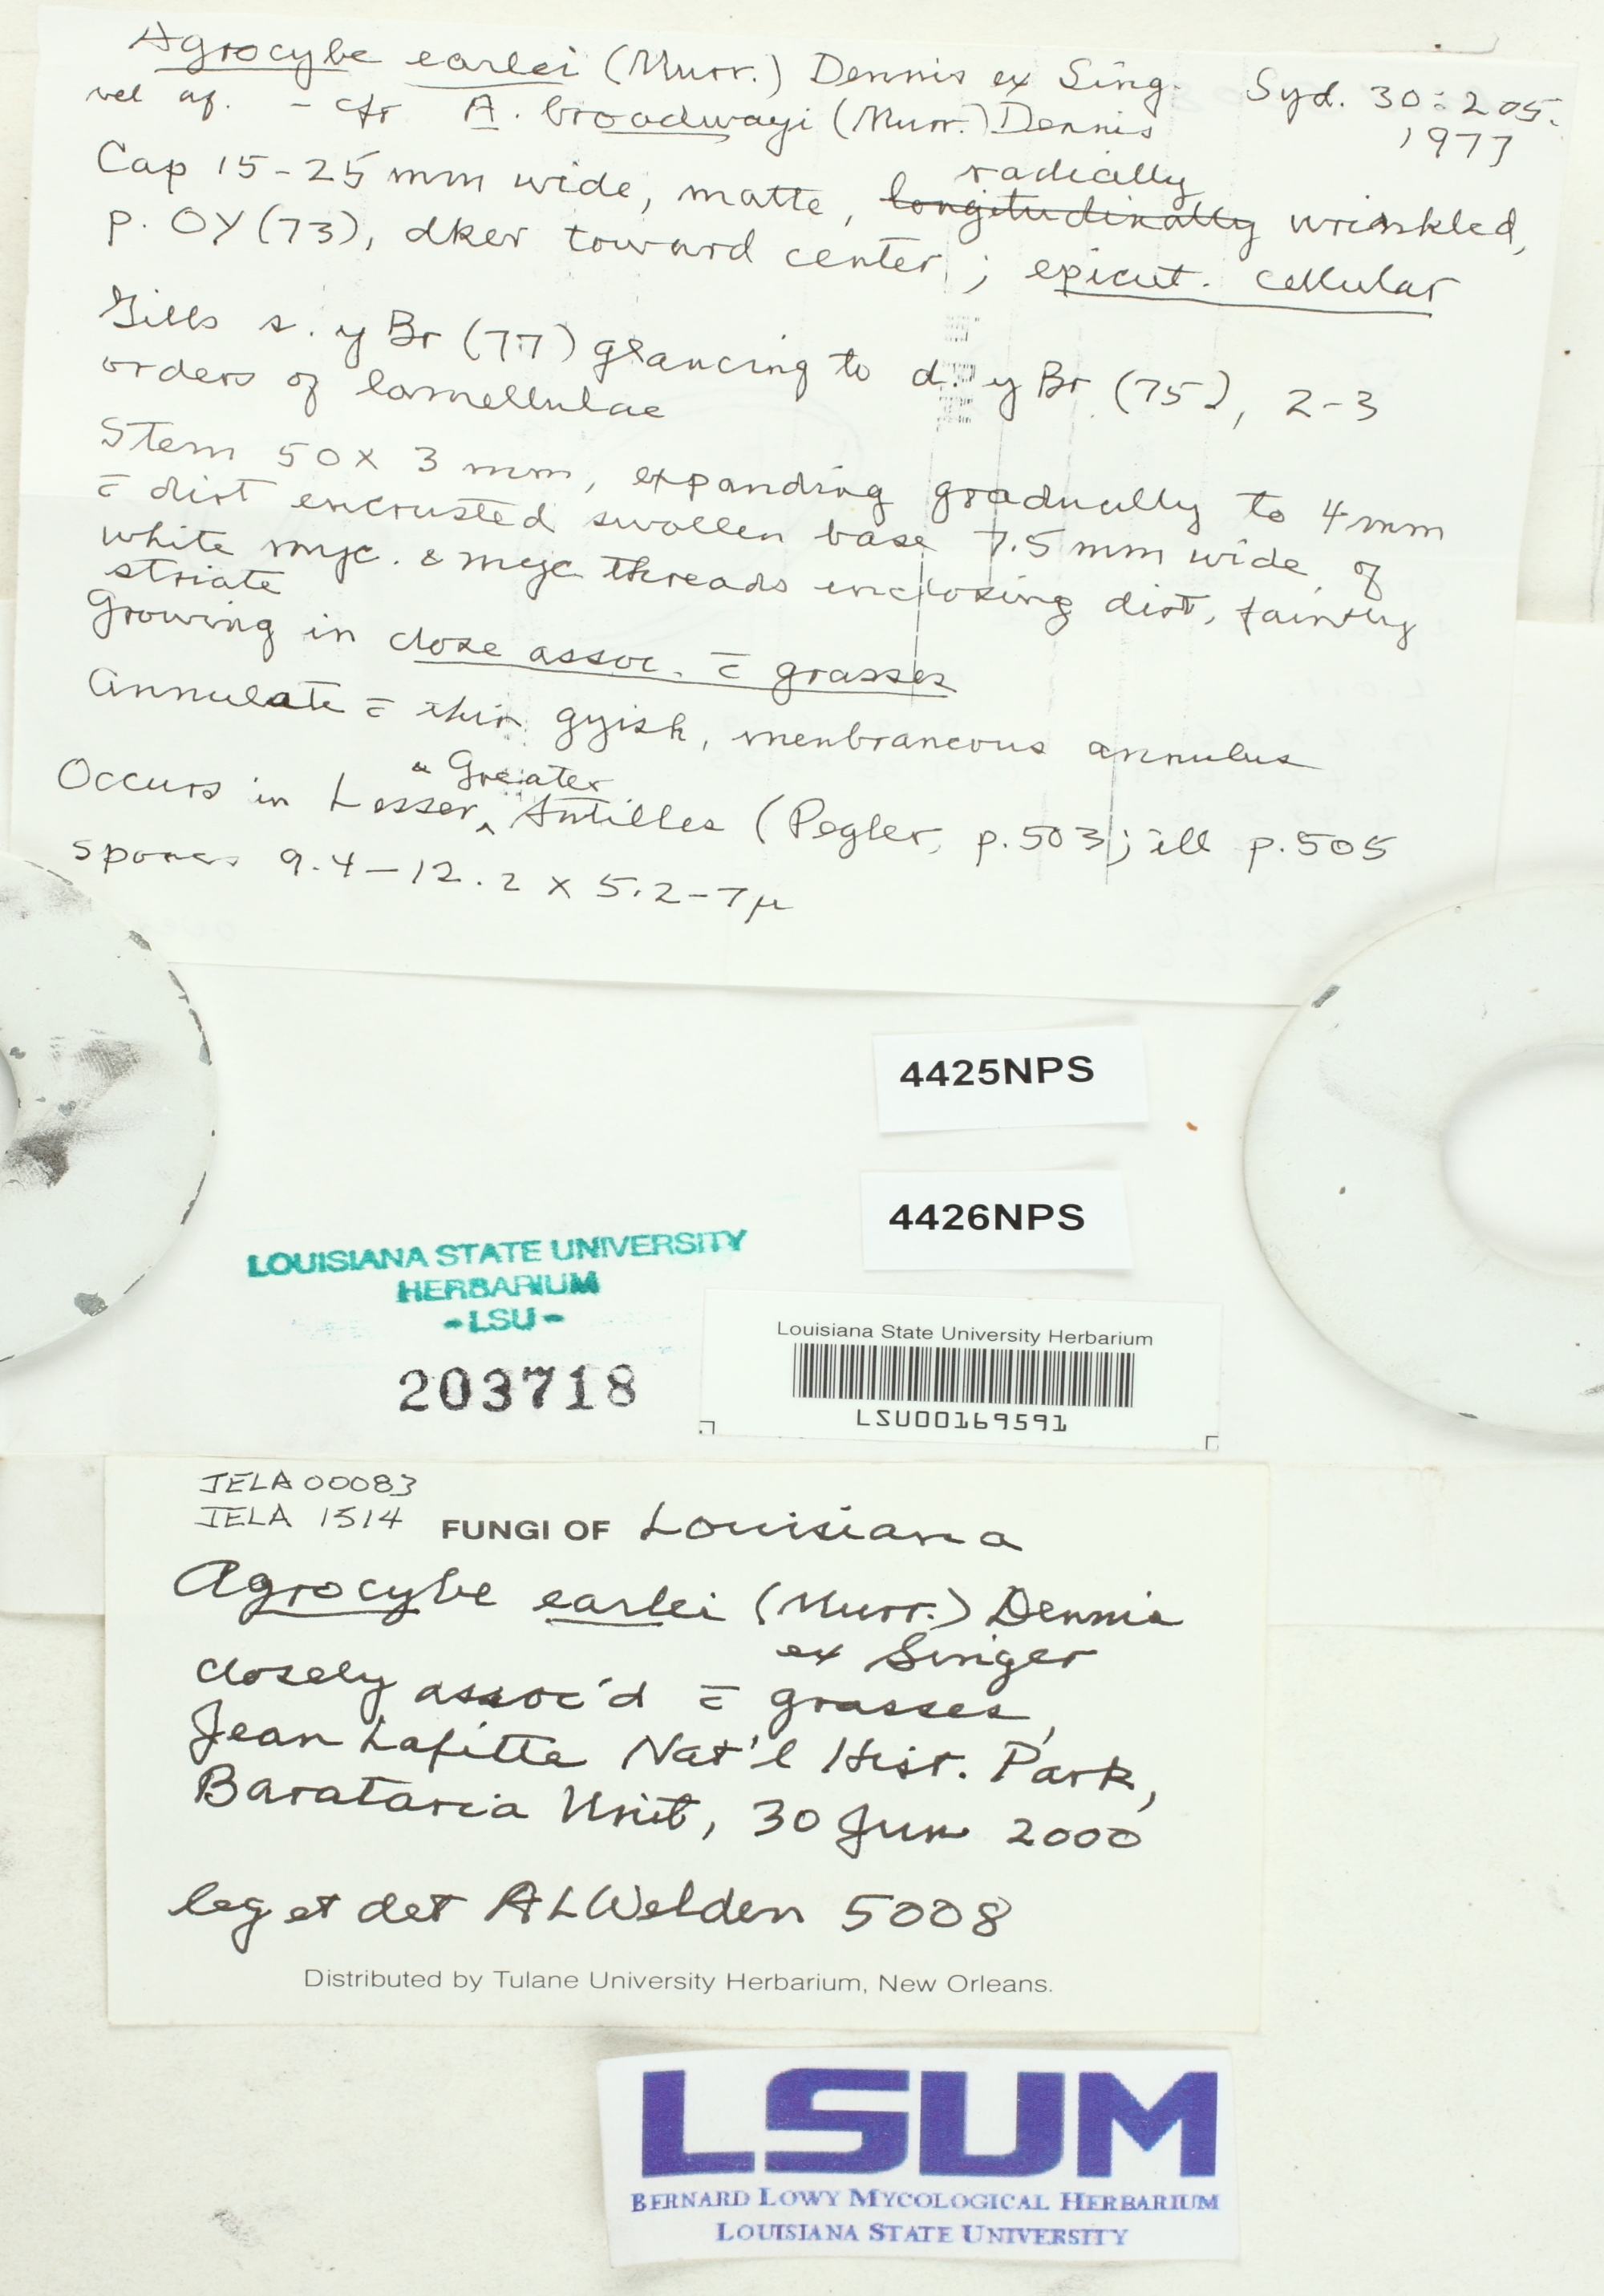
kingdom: Fungi
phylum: Basidiomycota
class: Agaricomycetes
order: Agaricales
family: Strophariaceae
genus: Agrocybe
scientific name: Agrocybe earlei
